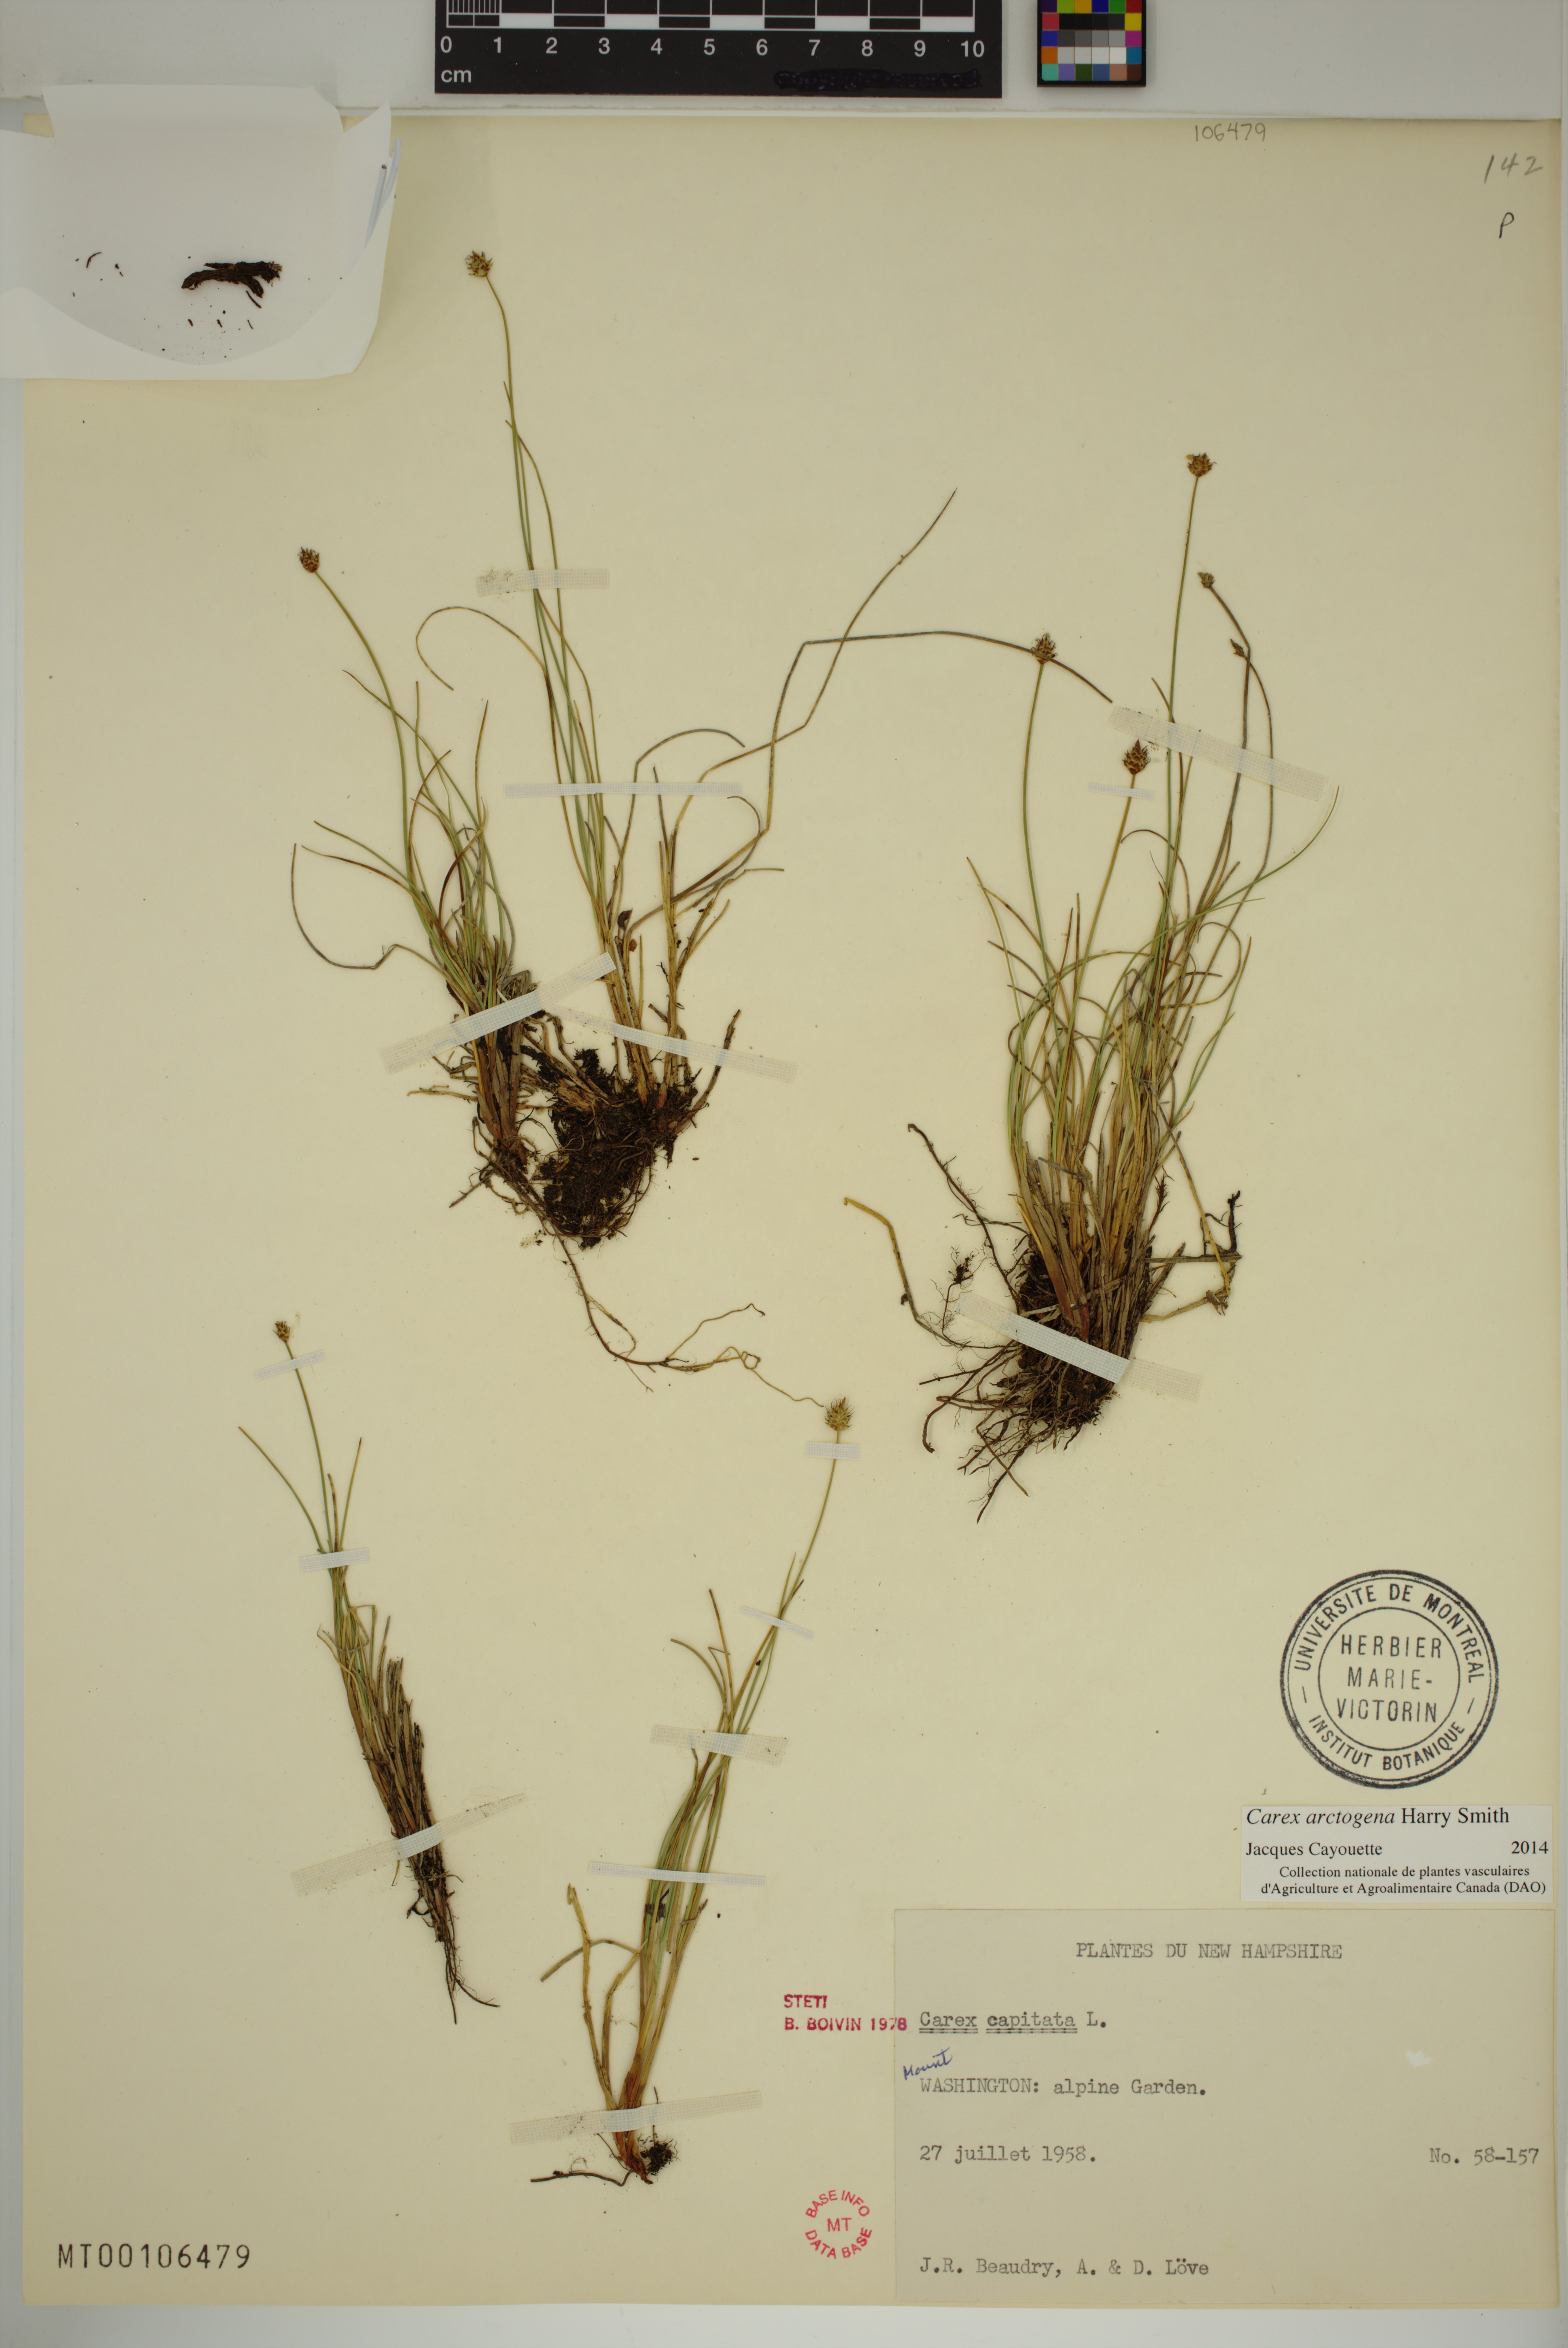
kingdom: Plantae
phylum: Tracheophyta
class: Liliopsida
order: Poales
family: Cyperaceae
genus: Carex
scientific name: Carex arctogena
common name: Black sedge
